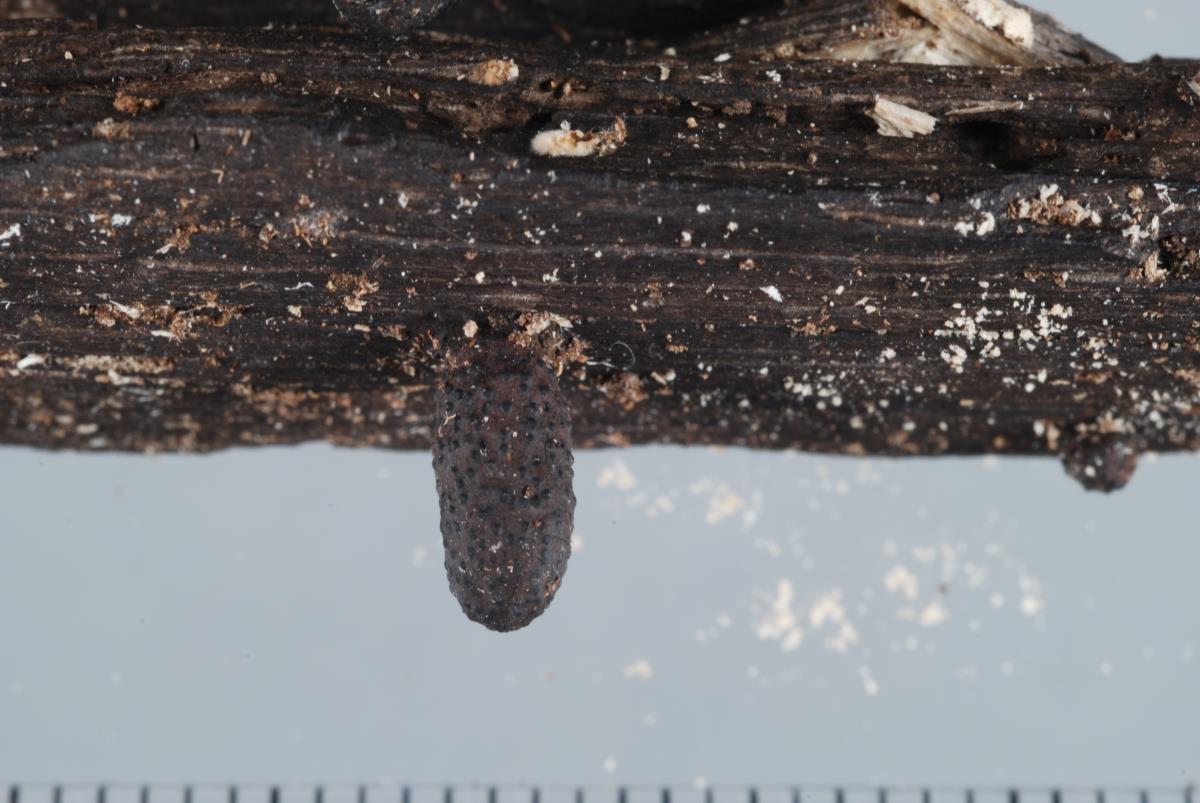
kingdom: Fungi
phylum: Ascomycota
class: Sordariomycetes
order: Xylariales
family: Xylariaceae
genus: Xylaria
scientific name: Xylaria cubensis
